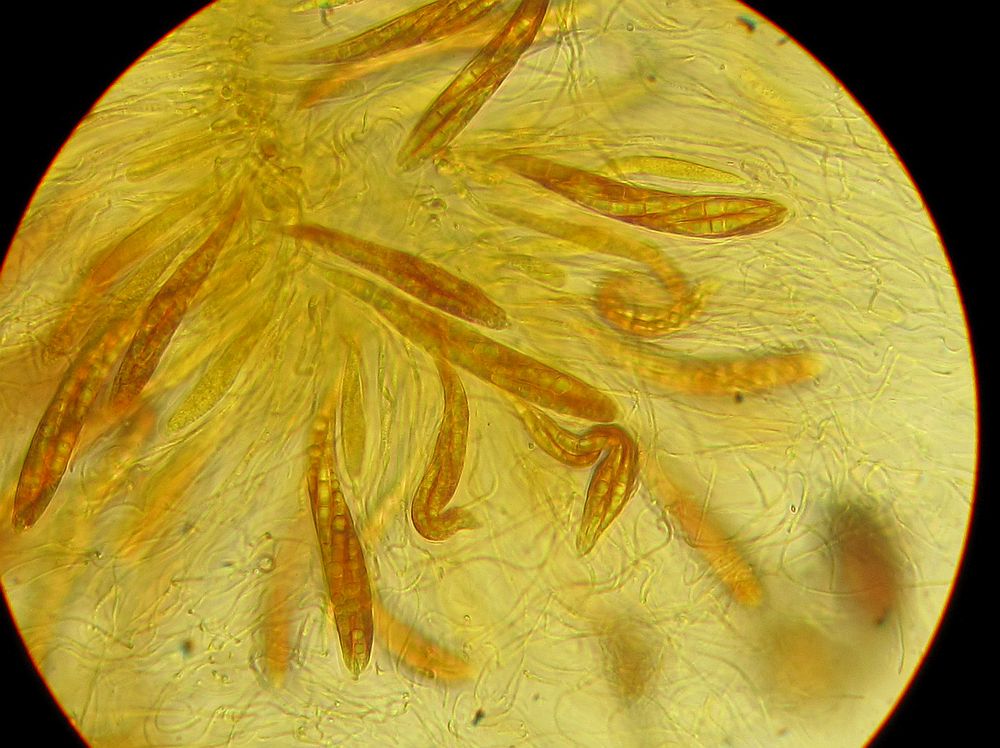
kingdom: Fungi
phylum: Ascomycota
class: Dothideomycetes
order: Pleosporales
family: Leptosphaeriaceae
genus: Leptosphaeria
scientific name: Leptosphaeria
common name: kulkegle
